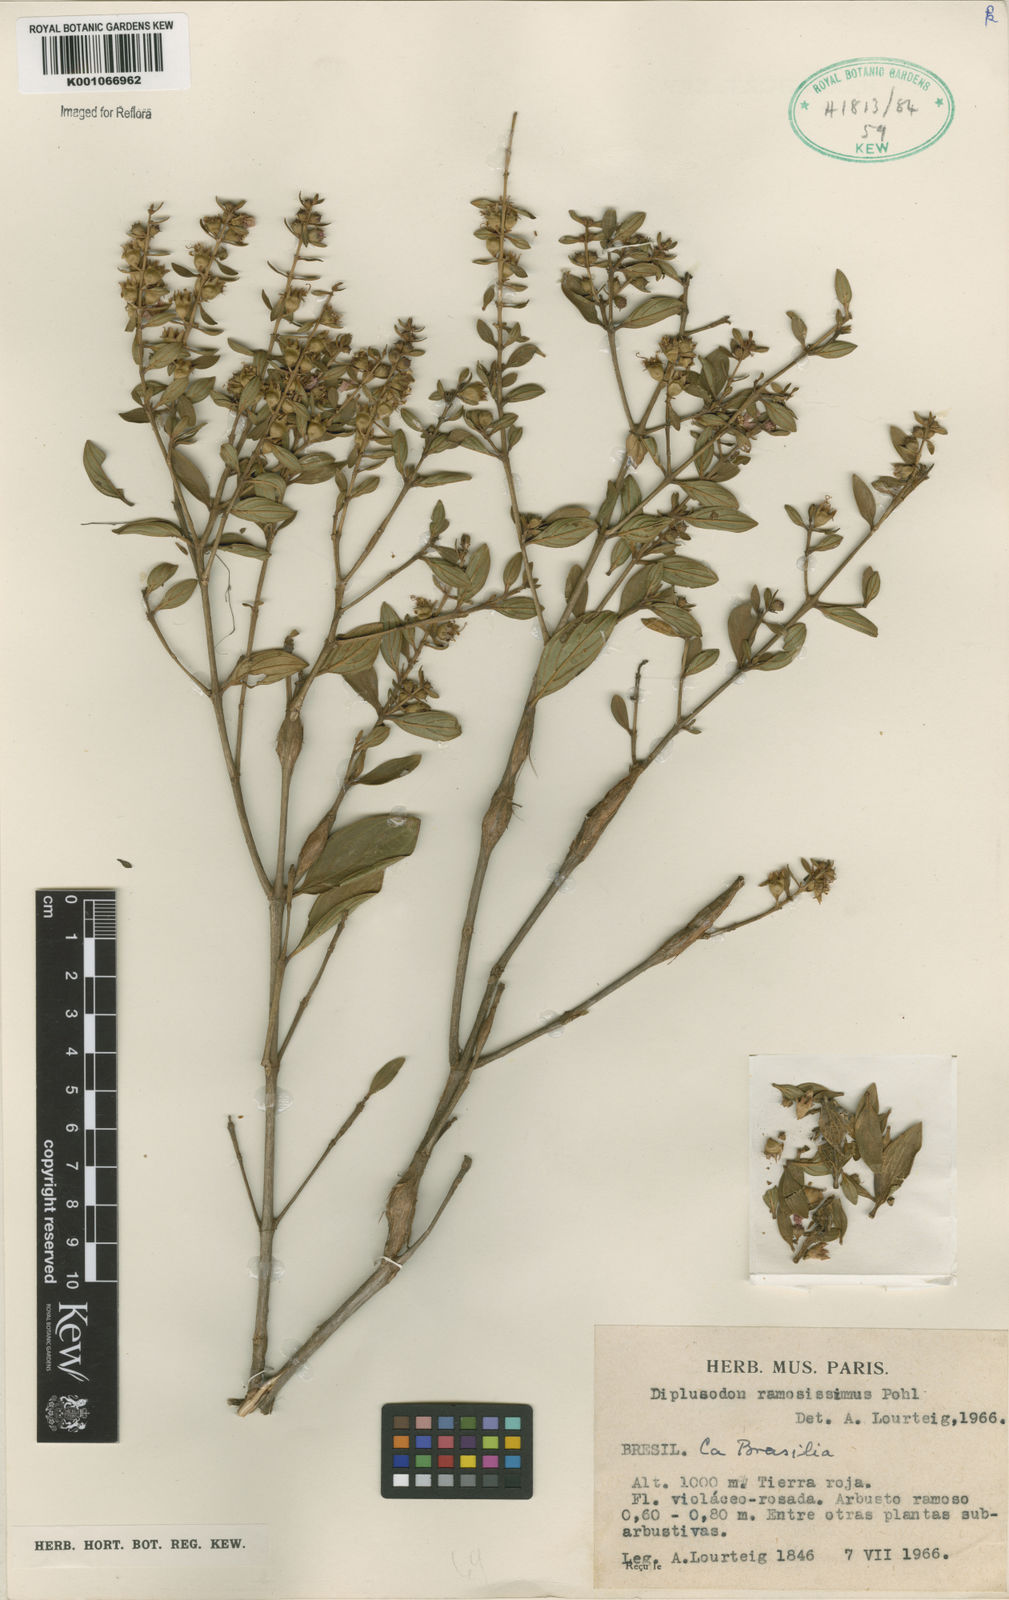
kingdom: Plantae
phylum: Tracheophyta
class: Magnoliopsida
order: Myrtales
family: Lythraceae
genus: Diplusodon
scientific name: Diplusodon ramosissimus
